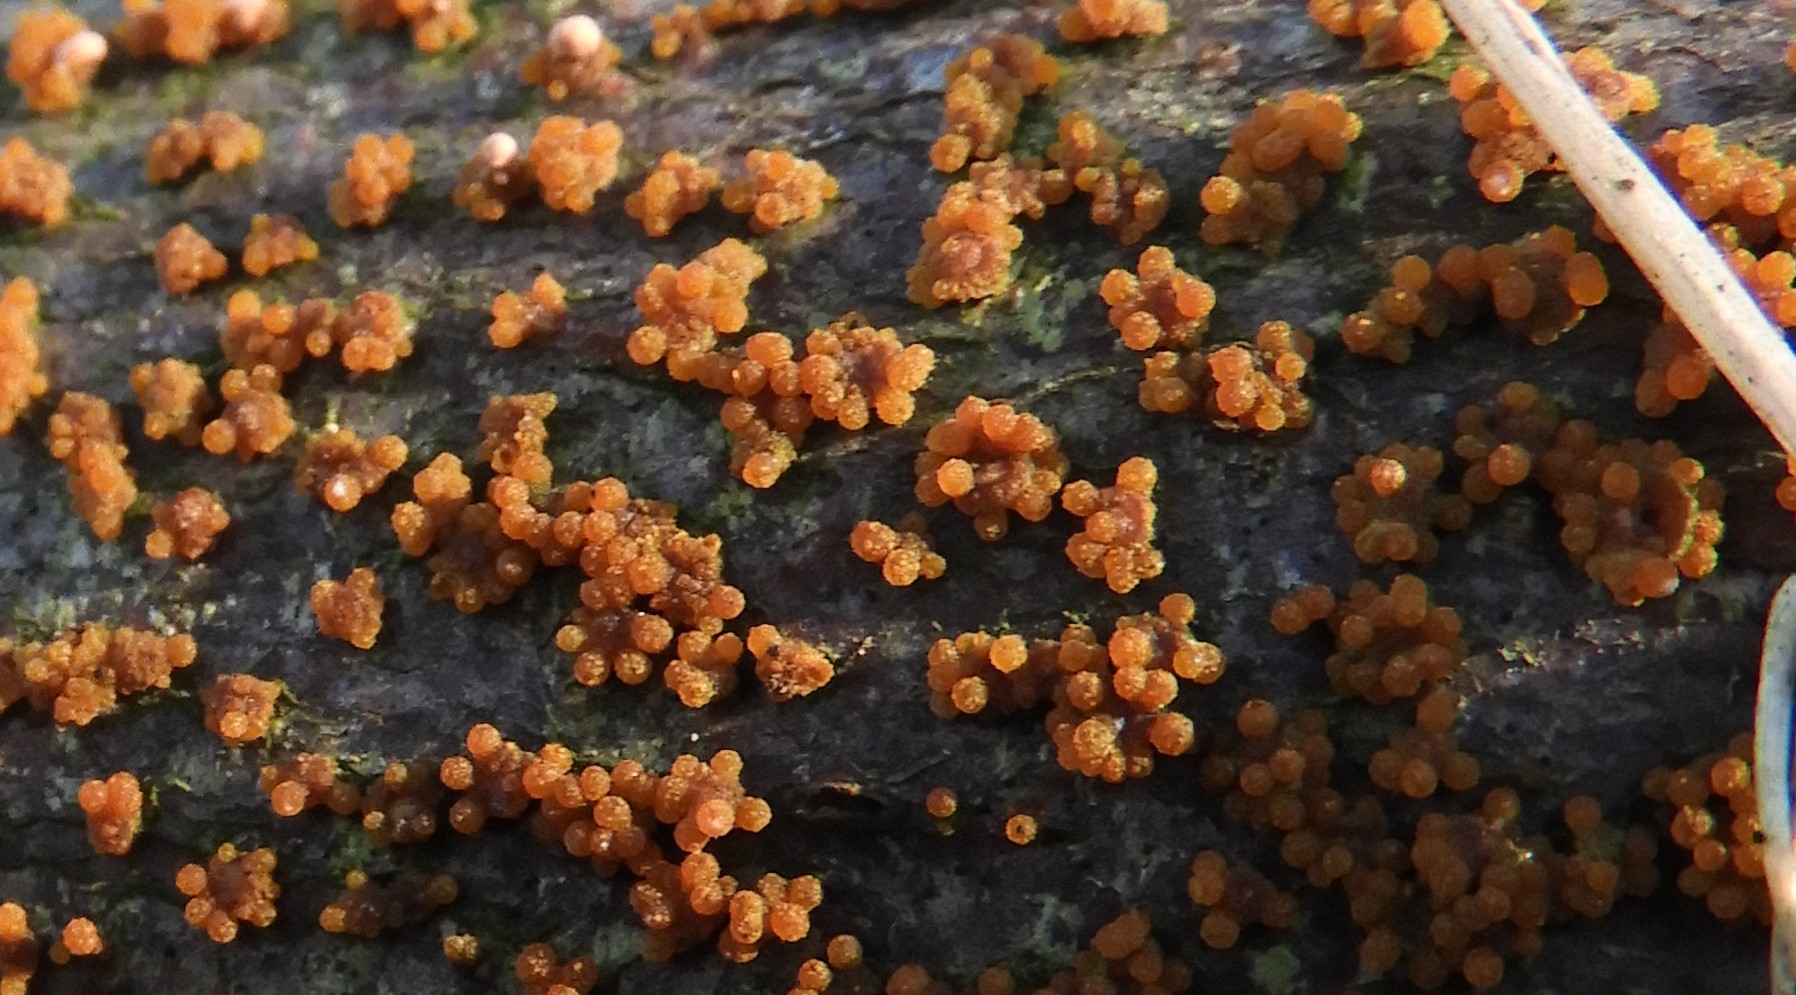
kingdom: Fungi
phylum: Ascomycota
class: Sordariomycetes
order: Hypocreales
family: Nectriaceae
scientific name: Nectriaceae
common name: cinnobersvampfamilien
